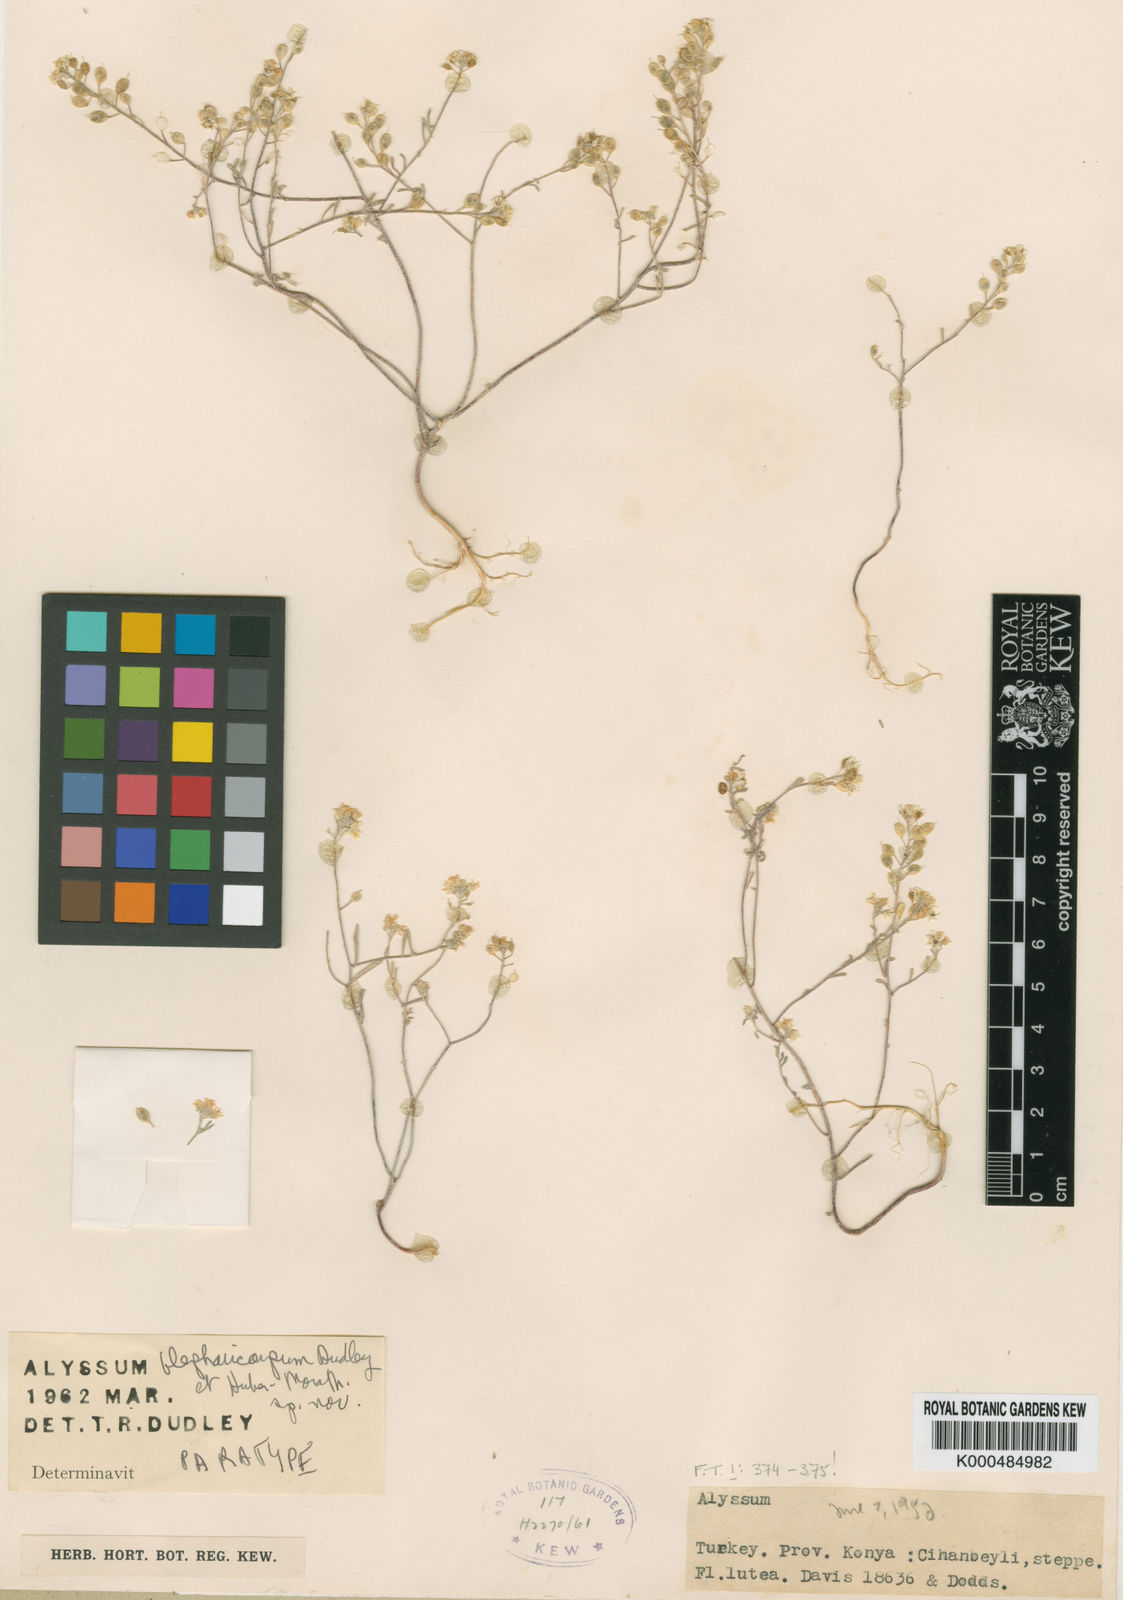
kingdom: Plantae
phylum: Tracheophyta
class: Magnoliopsida
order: Brassicales
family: Brassicaceae
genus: Meniocus
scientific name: Meniocus
